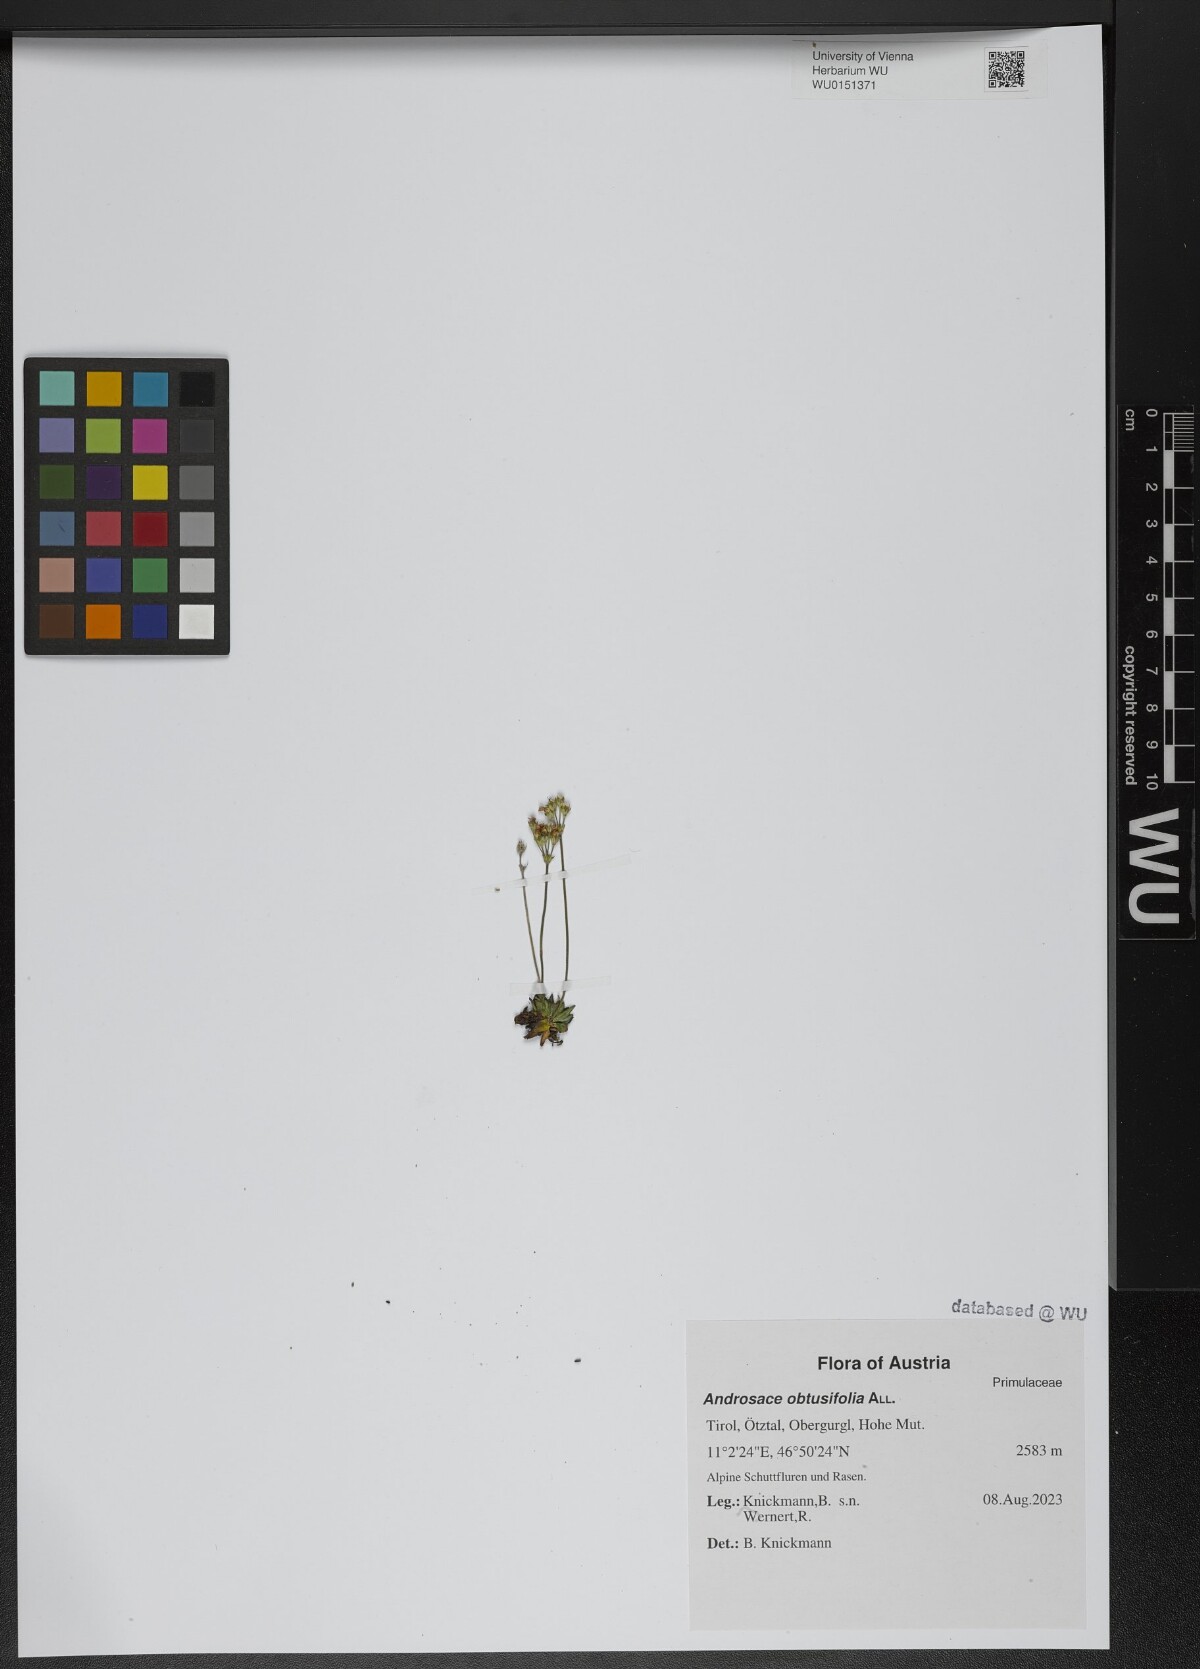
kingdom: Plantae
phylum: Tracheophyta
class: Magnoliopsida
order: Ericales
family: Primulaceae
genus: Androsace
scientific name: Androsace obtusifolia
